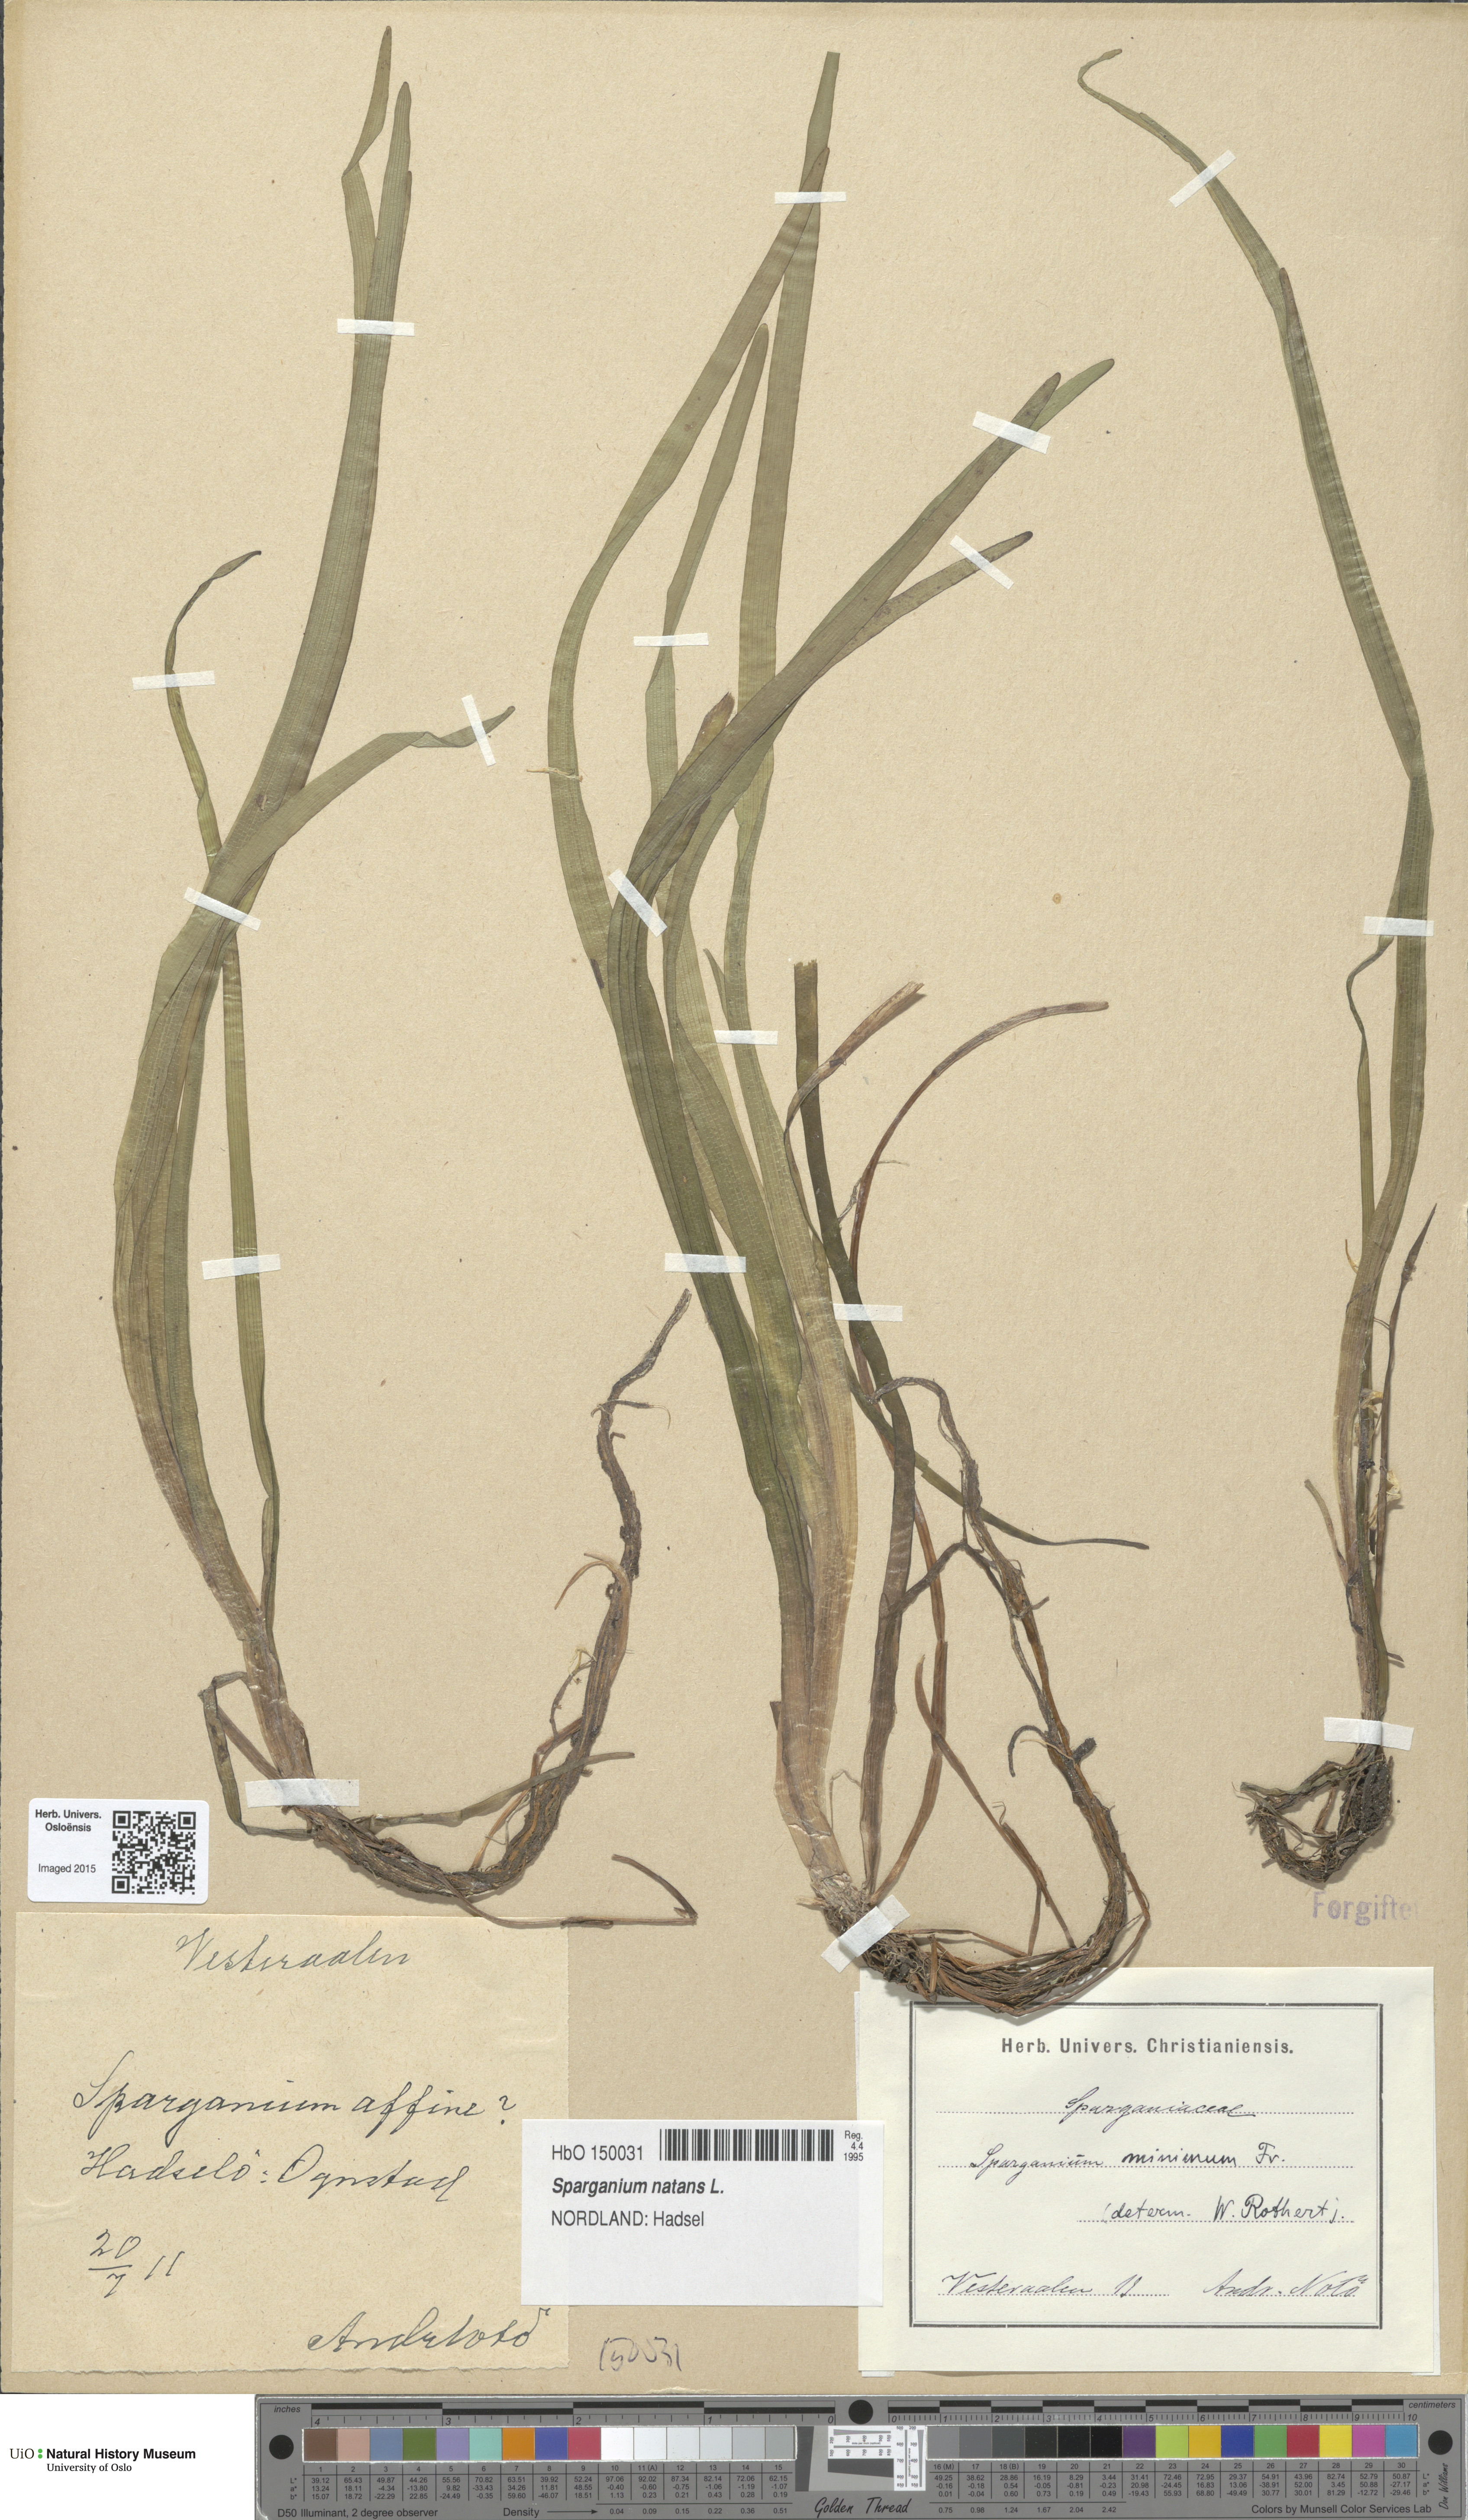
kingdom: Plantae
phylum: Tracheophyta
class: Liliopsida
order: Poales
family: Typhaceae
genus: Sparganium
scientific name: Sparganium natans
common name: Least bur-reed
